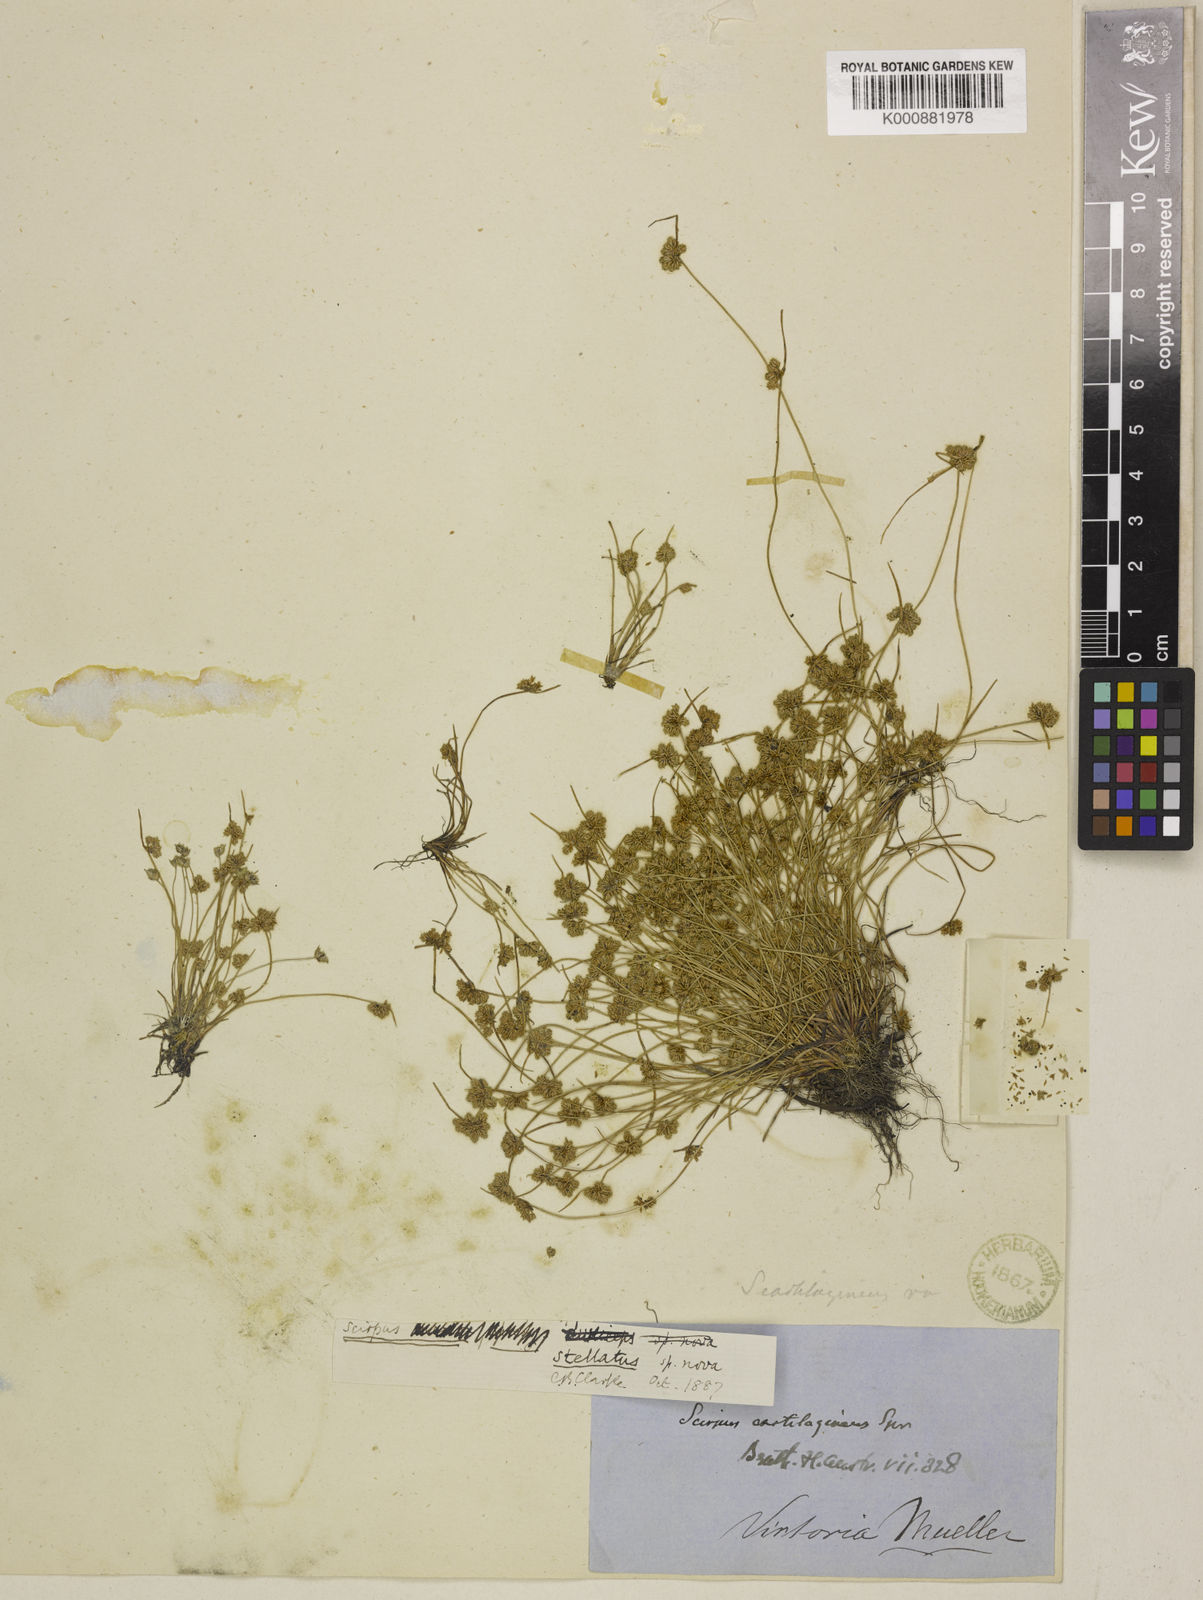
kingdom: Plantae
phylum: Tracheophyta
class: Liliopsida
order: Poales
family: Cyperaceae
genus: Isolepis
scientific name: Isolepis stellata
